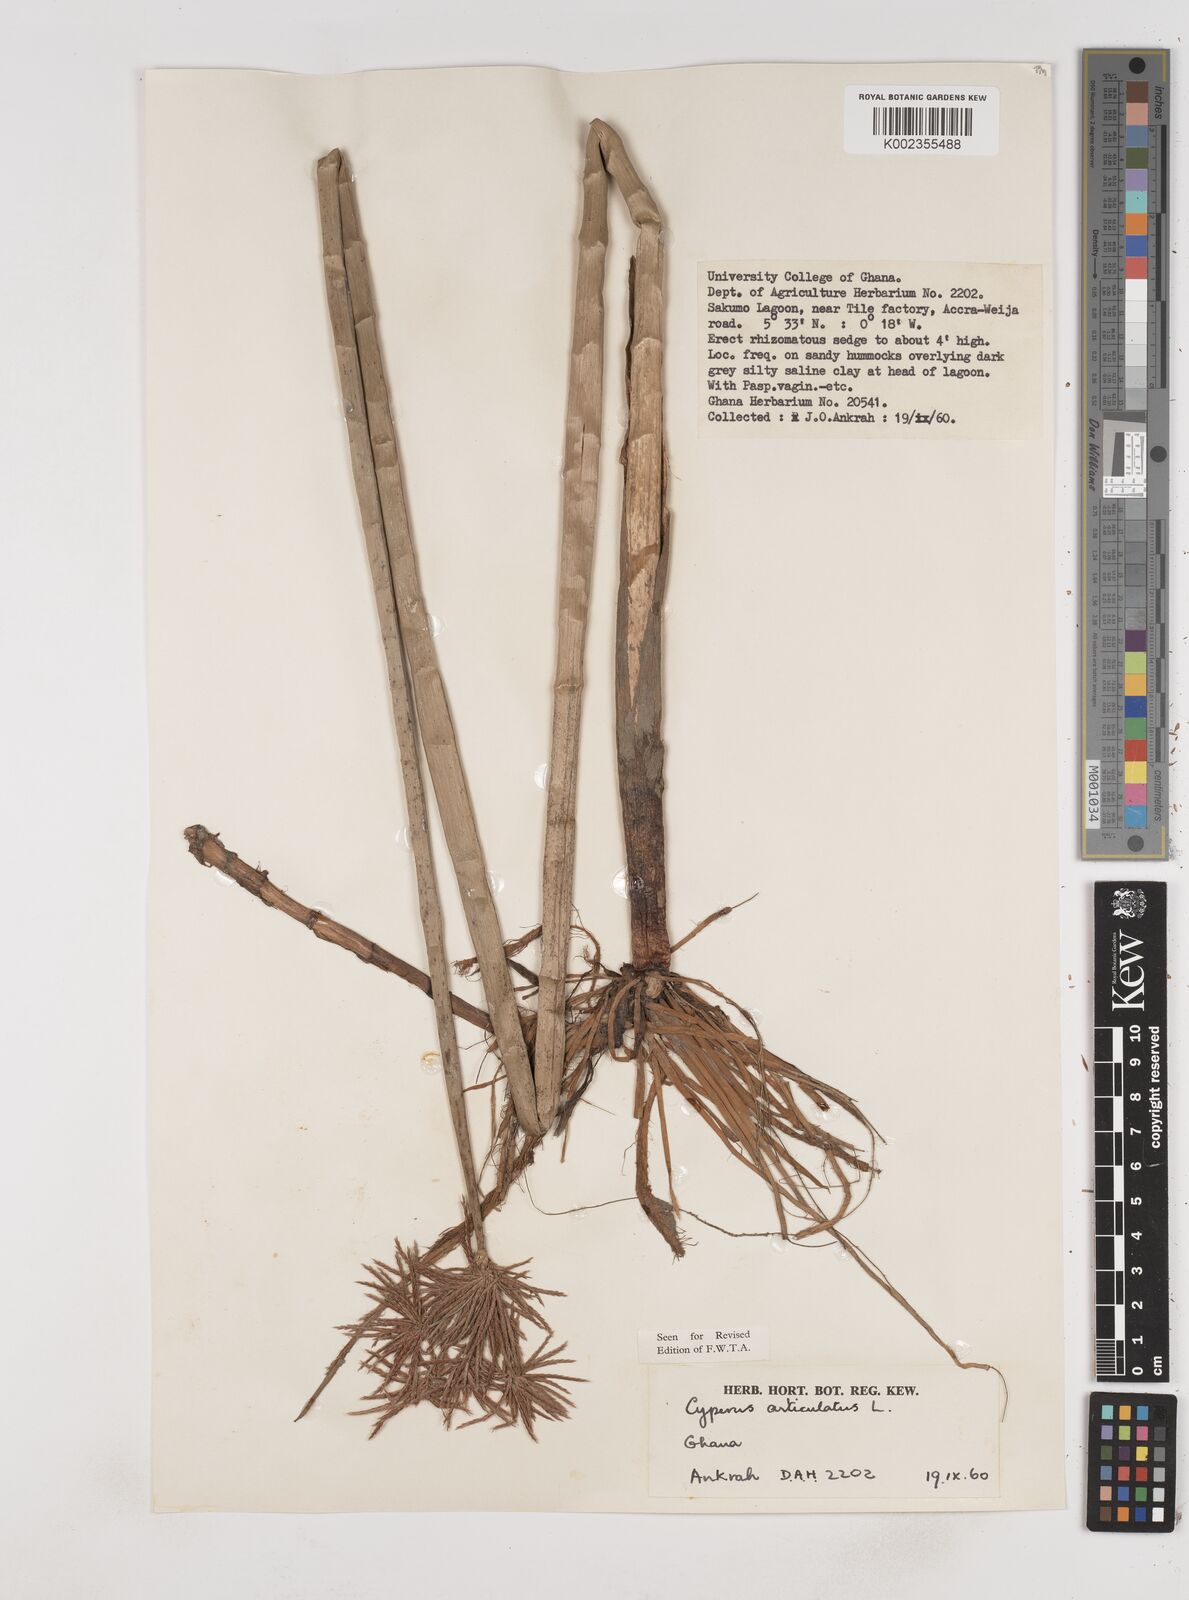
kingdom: Plantae
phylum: Tracheophyta
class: Liliopsida
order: Poales
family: Cyperaceae
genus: Cyperus
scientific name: Cyperus articulatus
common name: Jointed flatsedge
